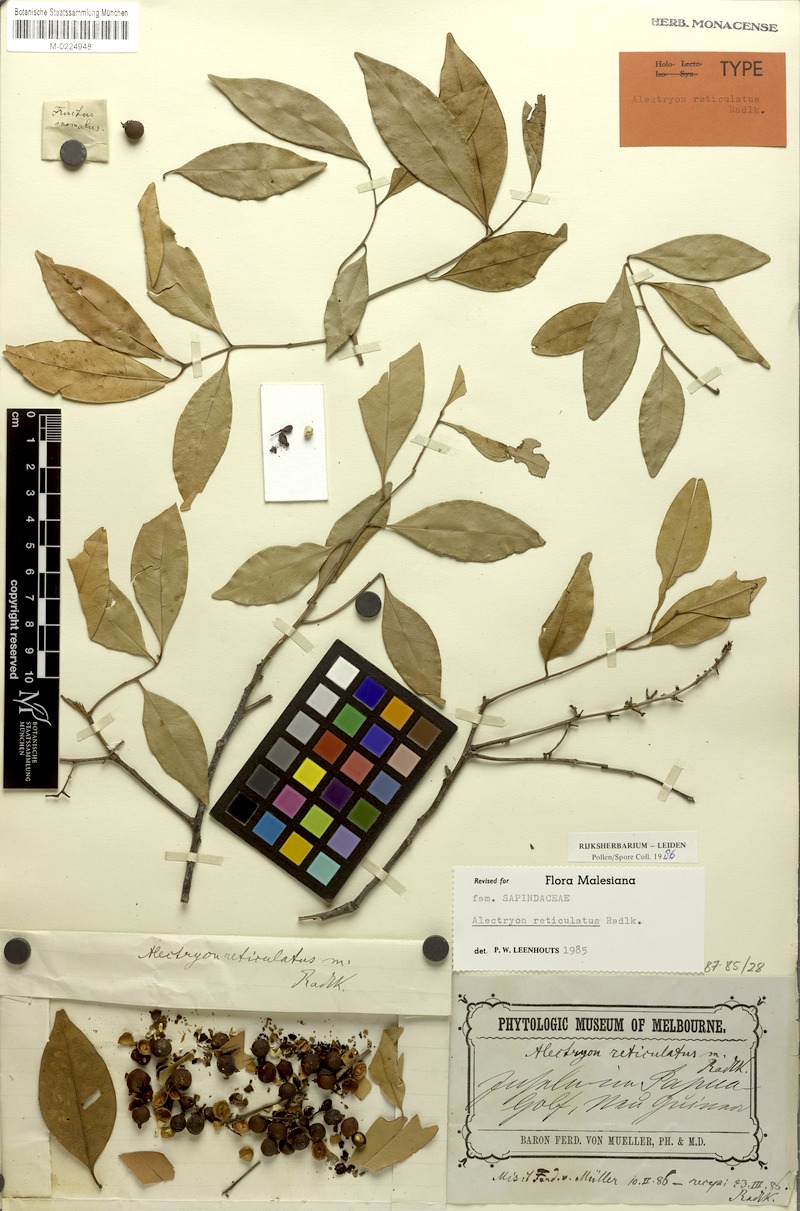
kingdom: Plantae
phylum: Tracheophyta
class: Magnoliopsida
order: Sapindales
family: Sapindaceae
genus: Alectryon
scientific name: Alectryon reticulatus
